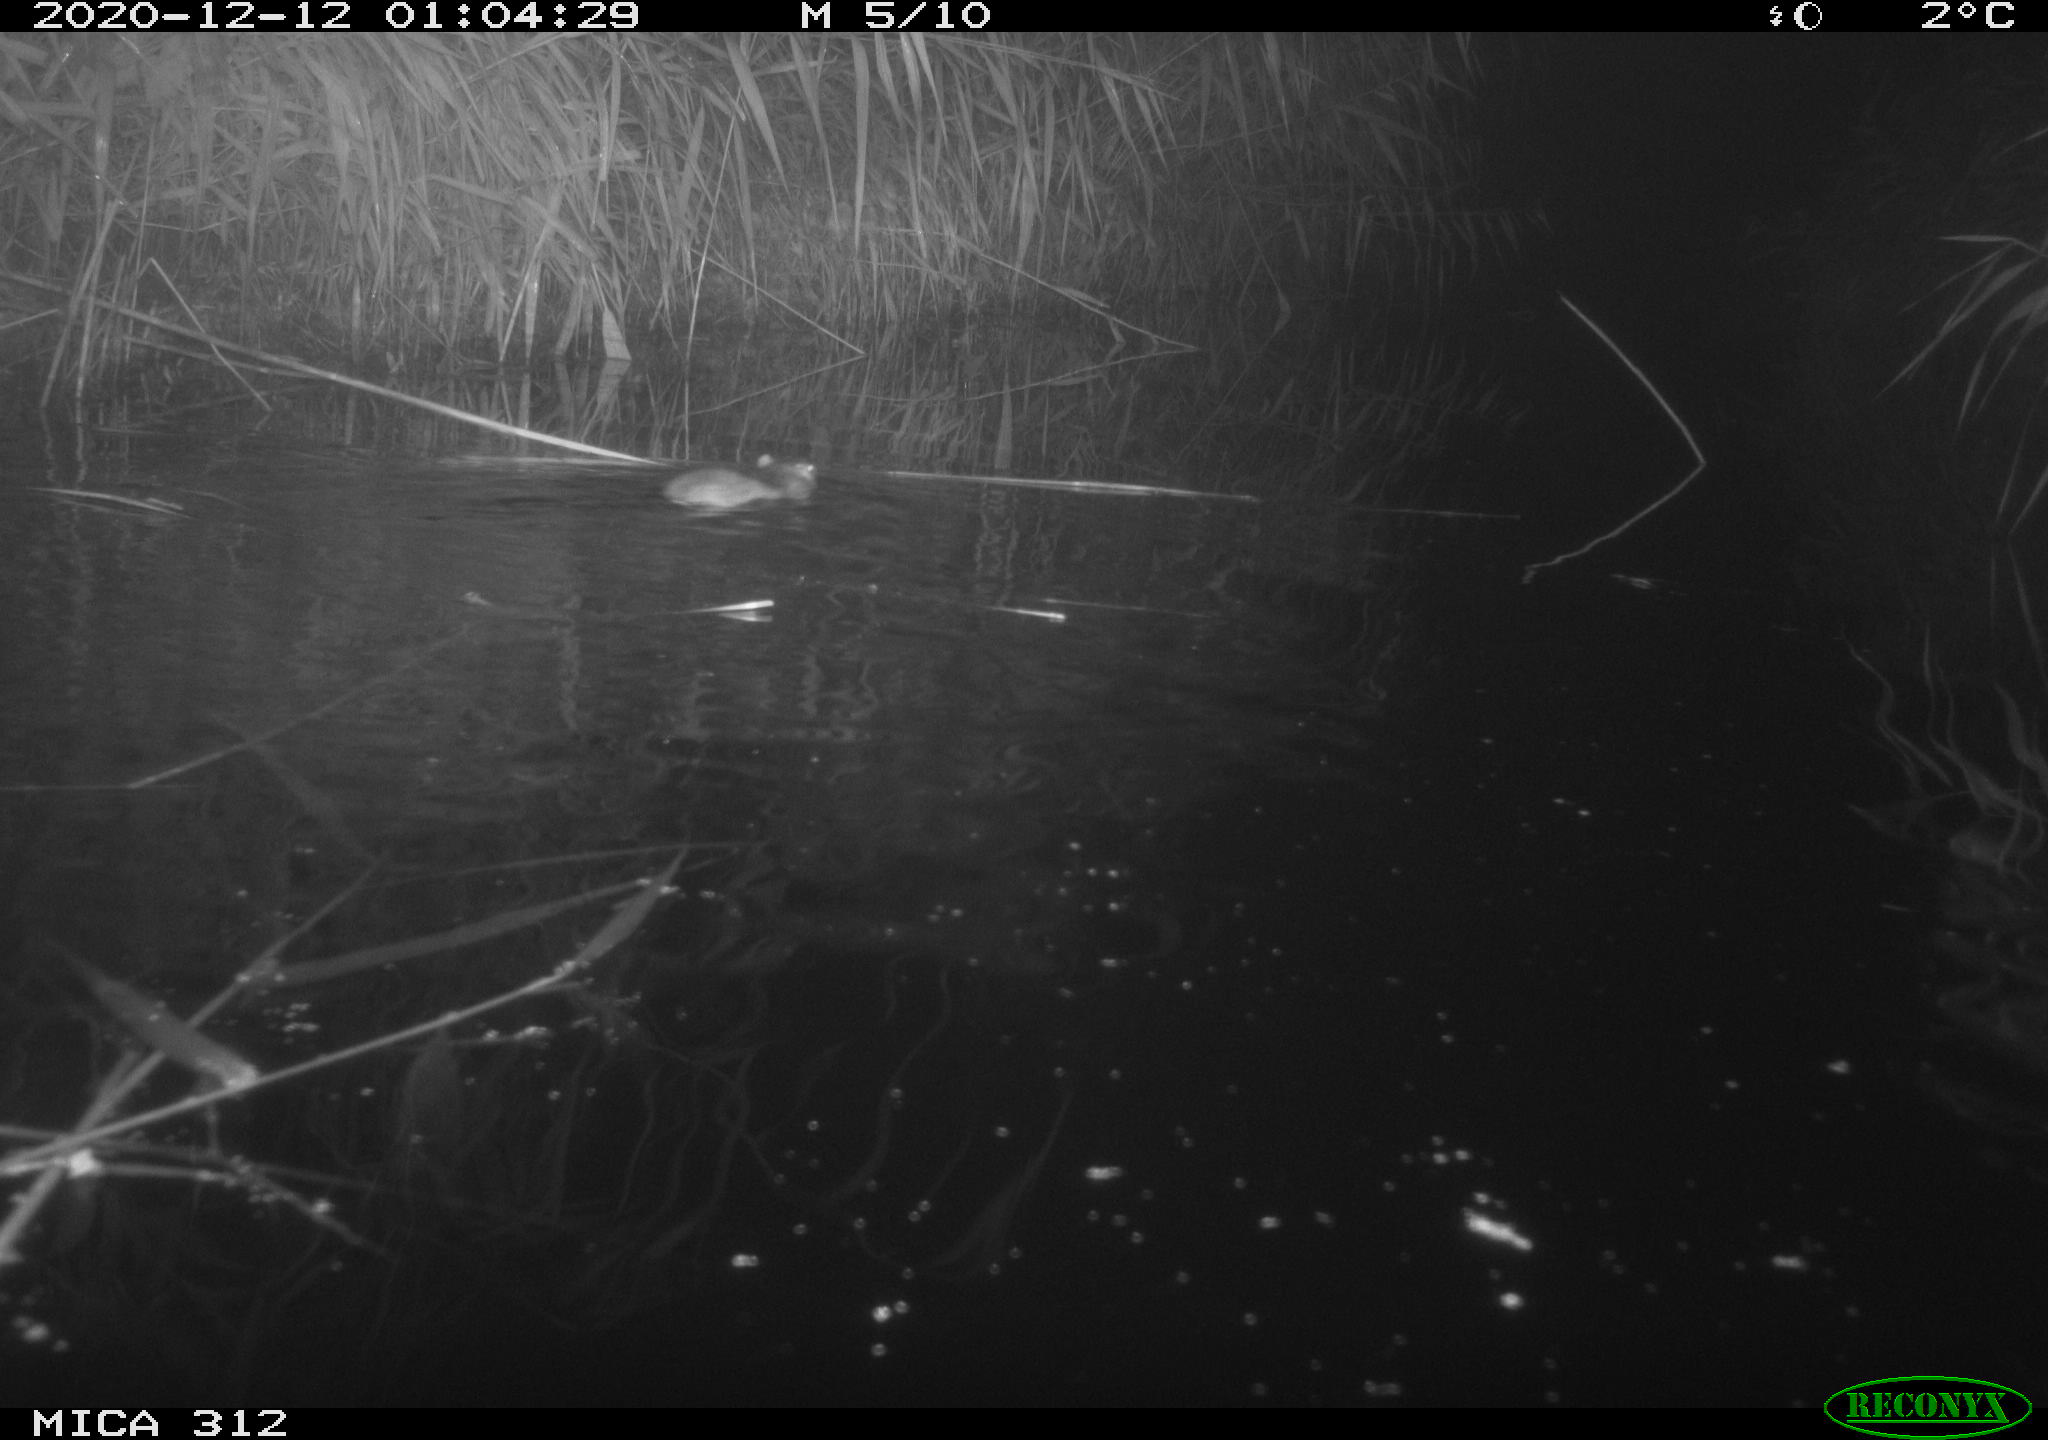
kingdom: Animalia
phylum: Chordata
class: Mammalia
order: Rodentia
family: Muridae
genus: Rattus
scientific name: Rattus norvegicus
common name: Brown rat
